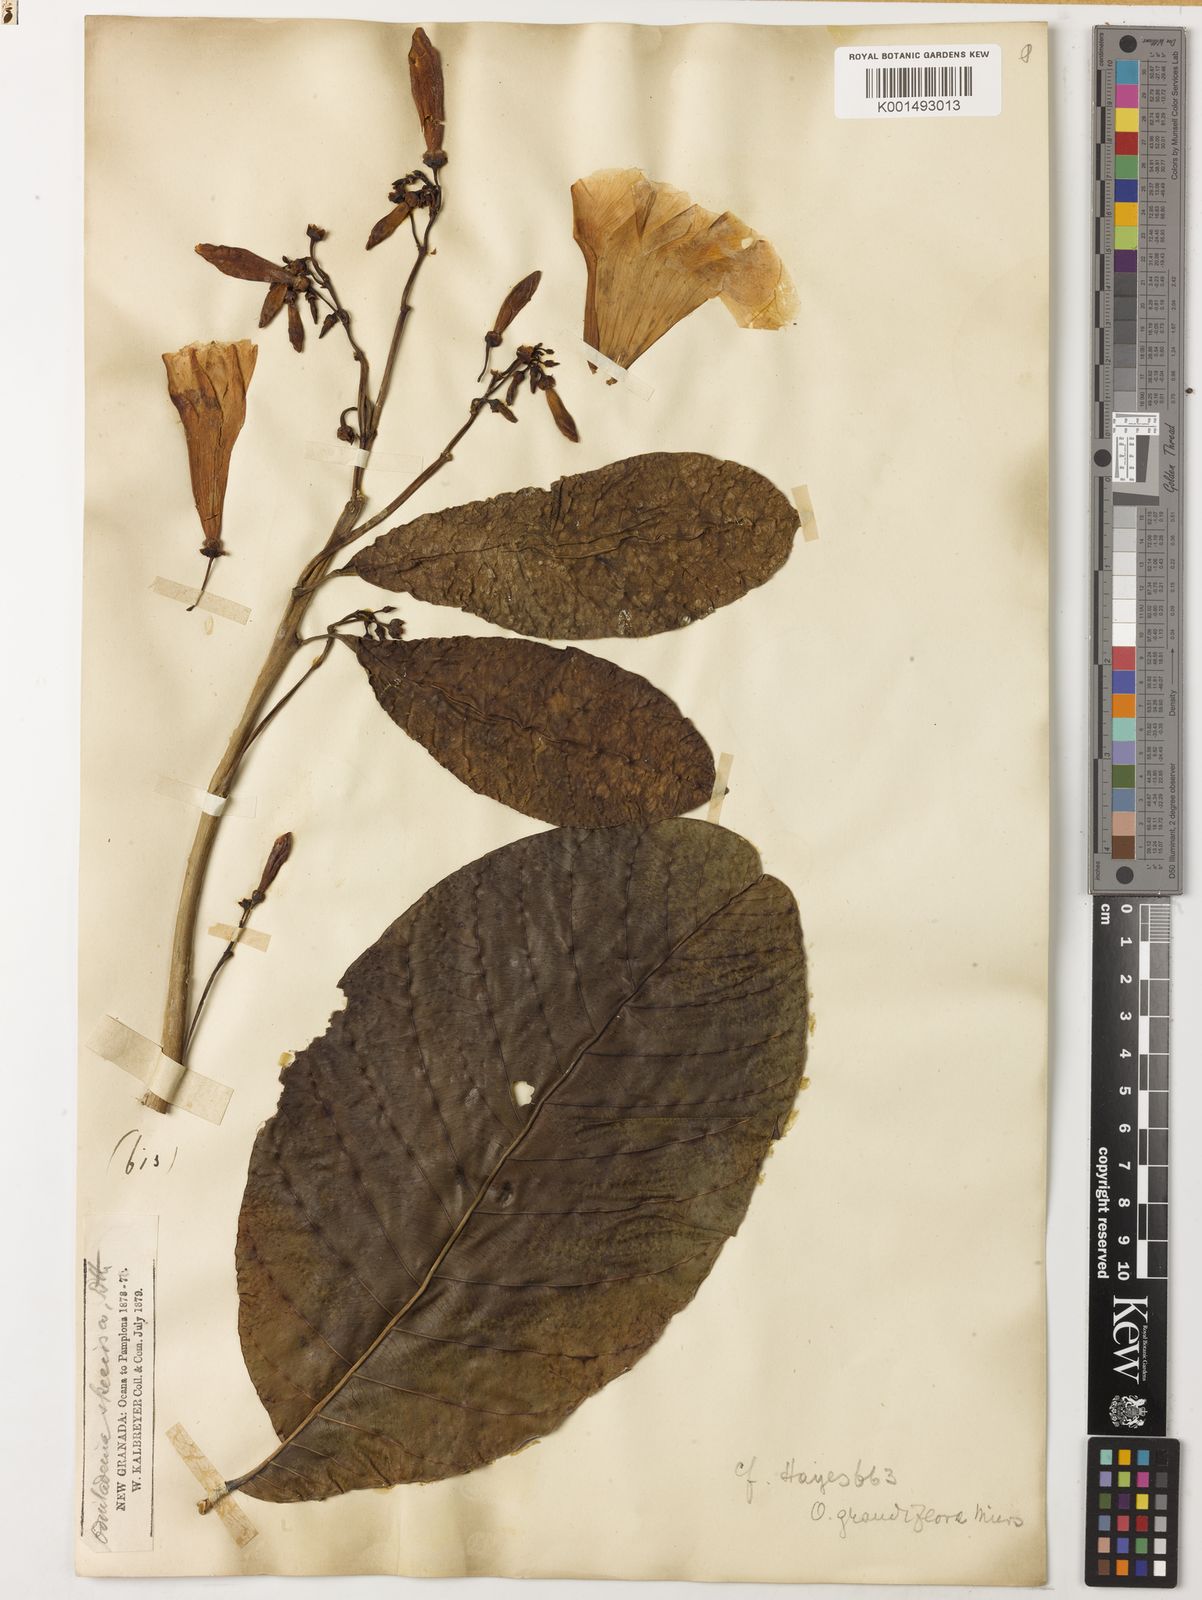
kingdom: Plantae
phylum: Tracheophyta
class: Magnoliopsida
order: Gentianales
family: Apocynaceae
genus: Odontadenia
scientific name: Odontadenia semidigyna
